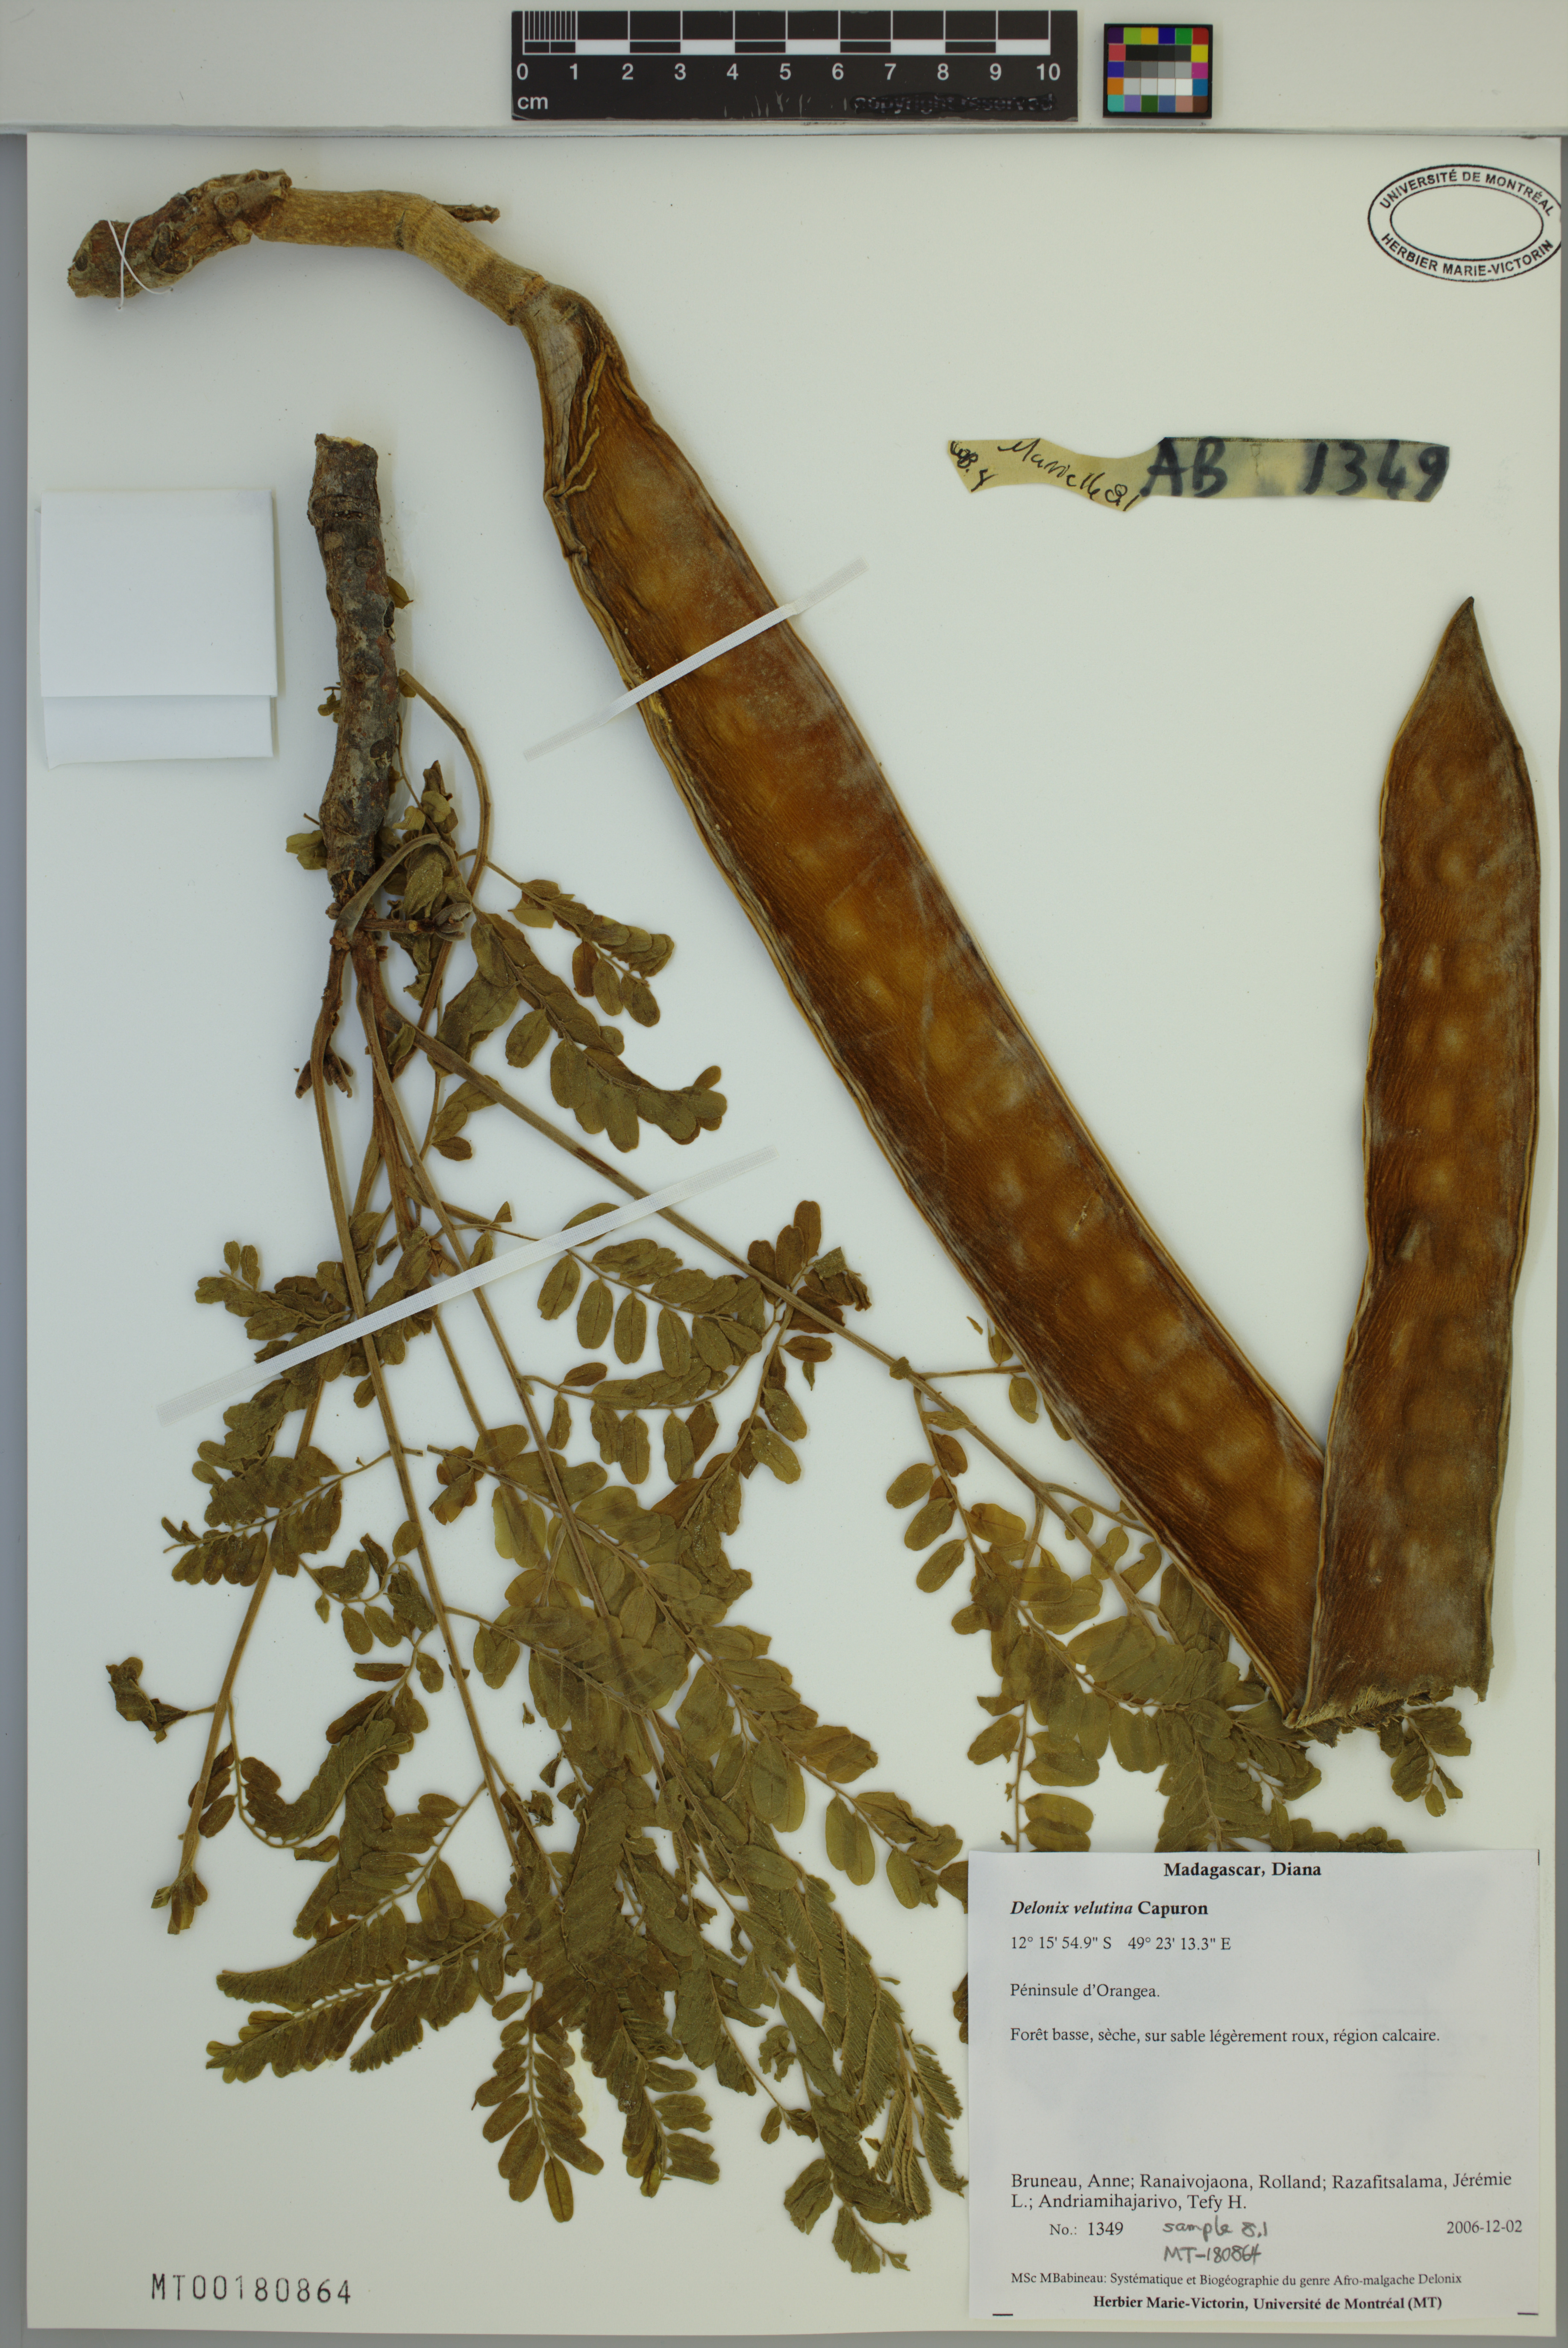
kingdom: Plantae
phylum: Tracheophyta
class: Magnoliopsida
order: Fabales
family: Fabaceae
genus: Delonix
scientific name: Delonix velutina
